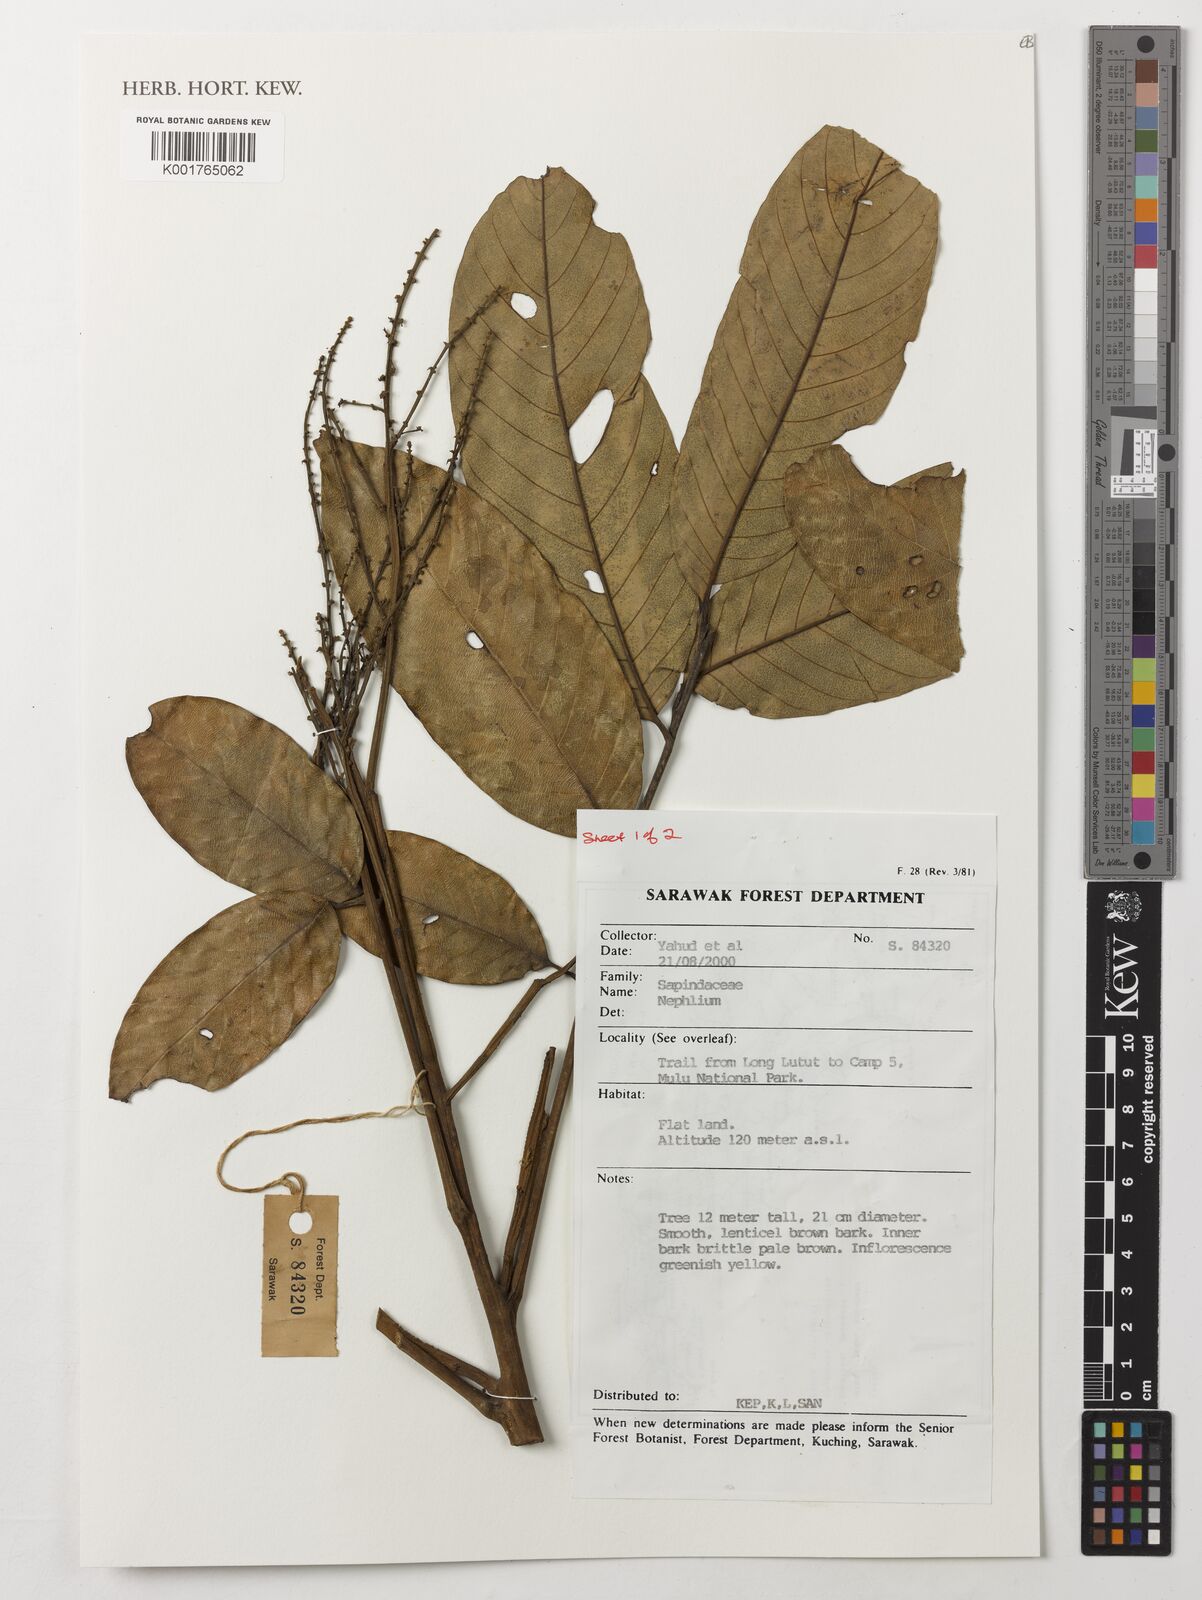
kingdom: Plantae
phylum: Tracheophyta
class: Magnoliopsida
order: Sapindales
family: Sapindaceae
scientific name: Sapindaceae
